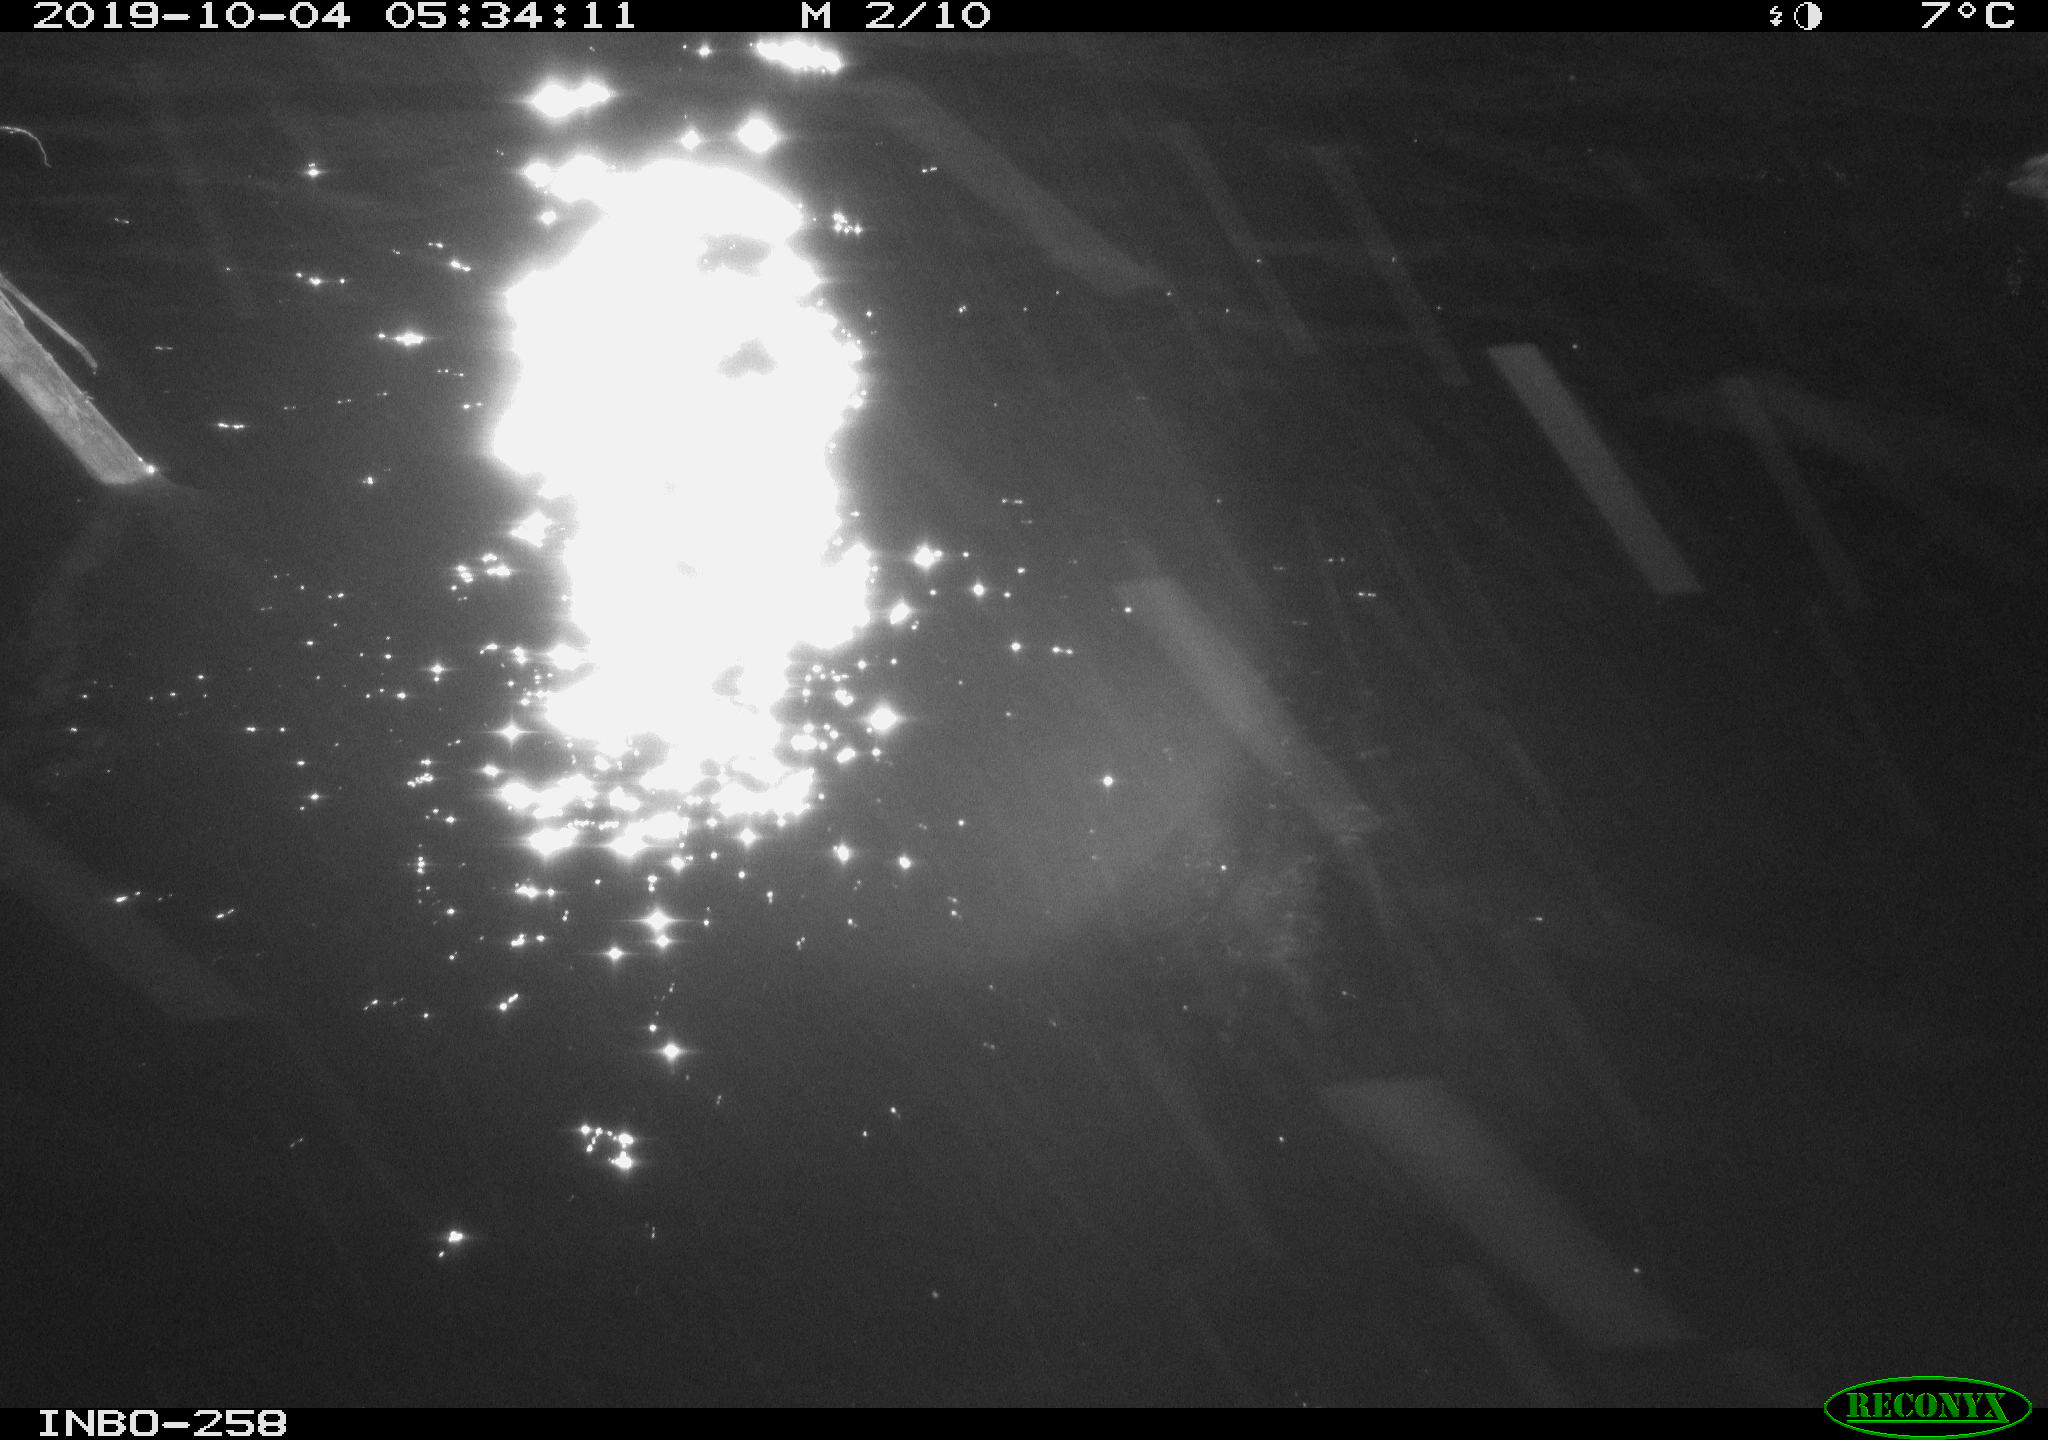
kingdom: Animalia
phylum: Chordata
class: Aves
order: Anseriformes
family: Anatidae
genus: Anas
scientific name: Anas platyrhynchos
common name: Mallard
